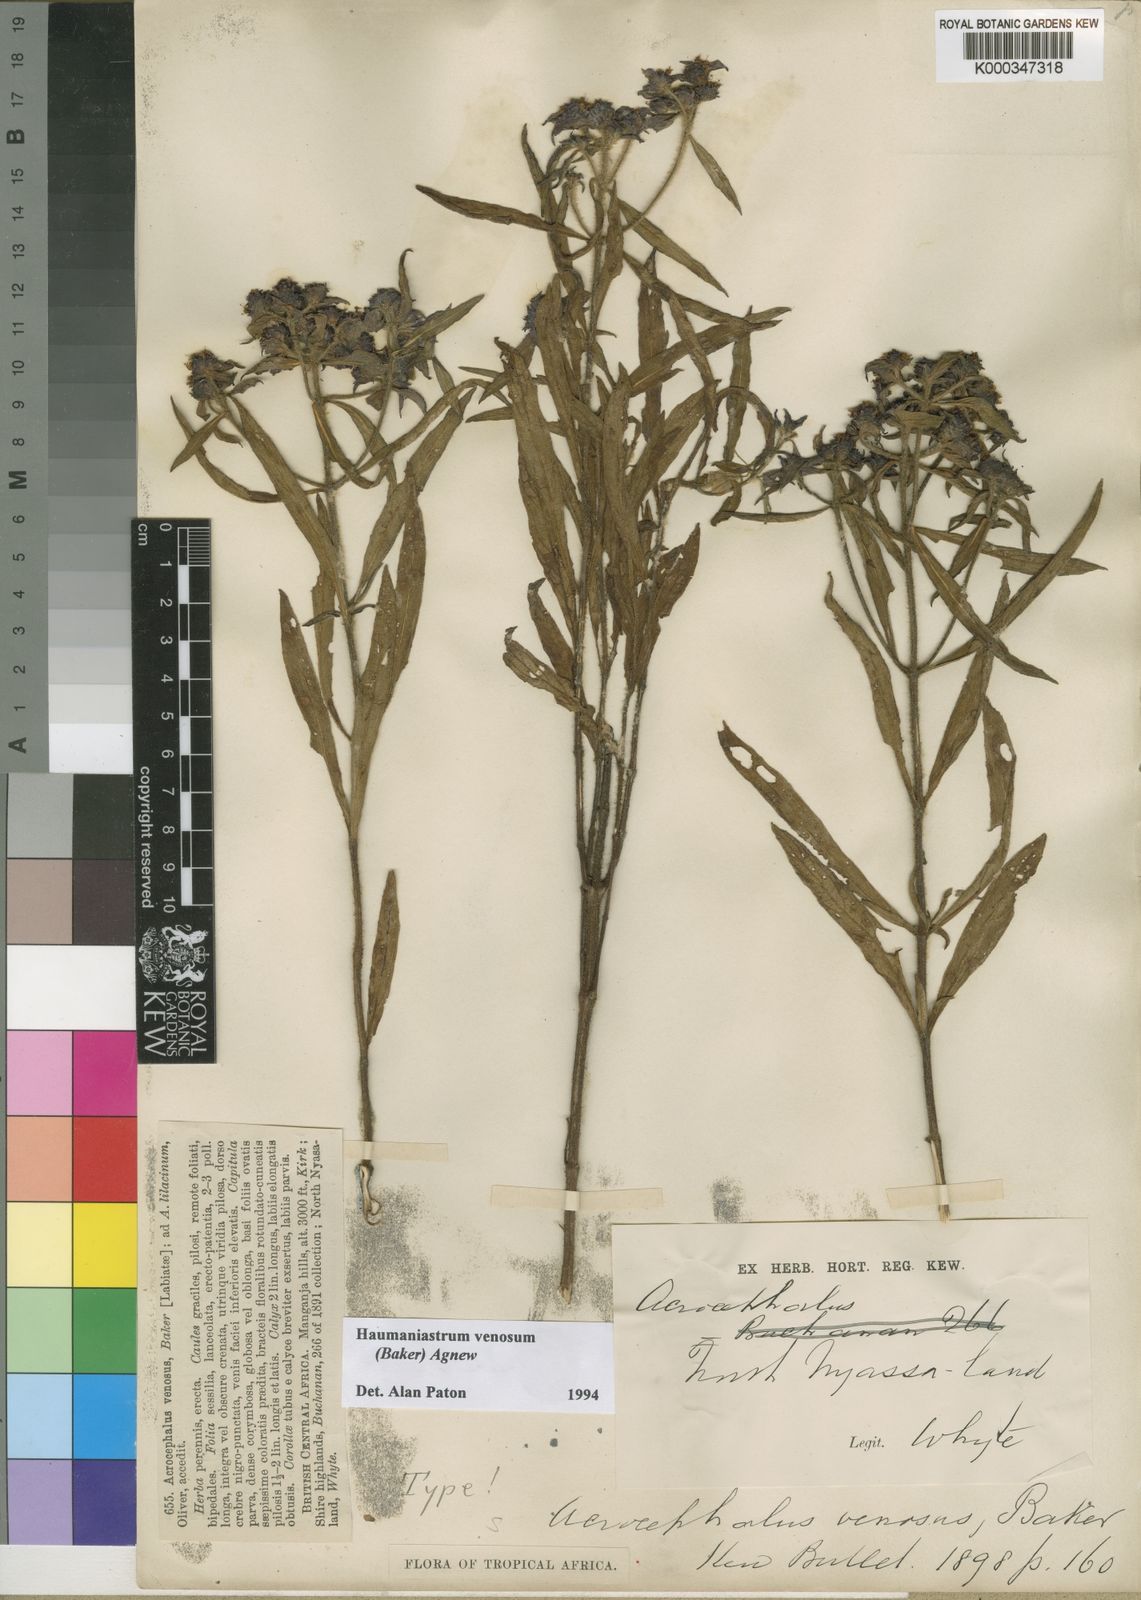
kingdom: Plantae
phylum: Tracheophyta
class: Magnoliopsida
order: Lamiales
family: Lamiaceae
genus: Haumaniastrum
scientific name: Haumaniastrum venosum
